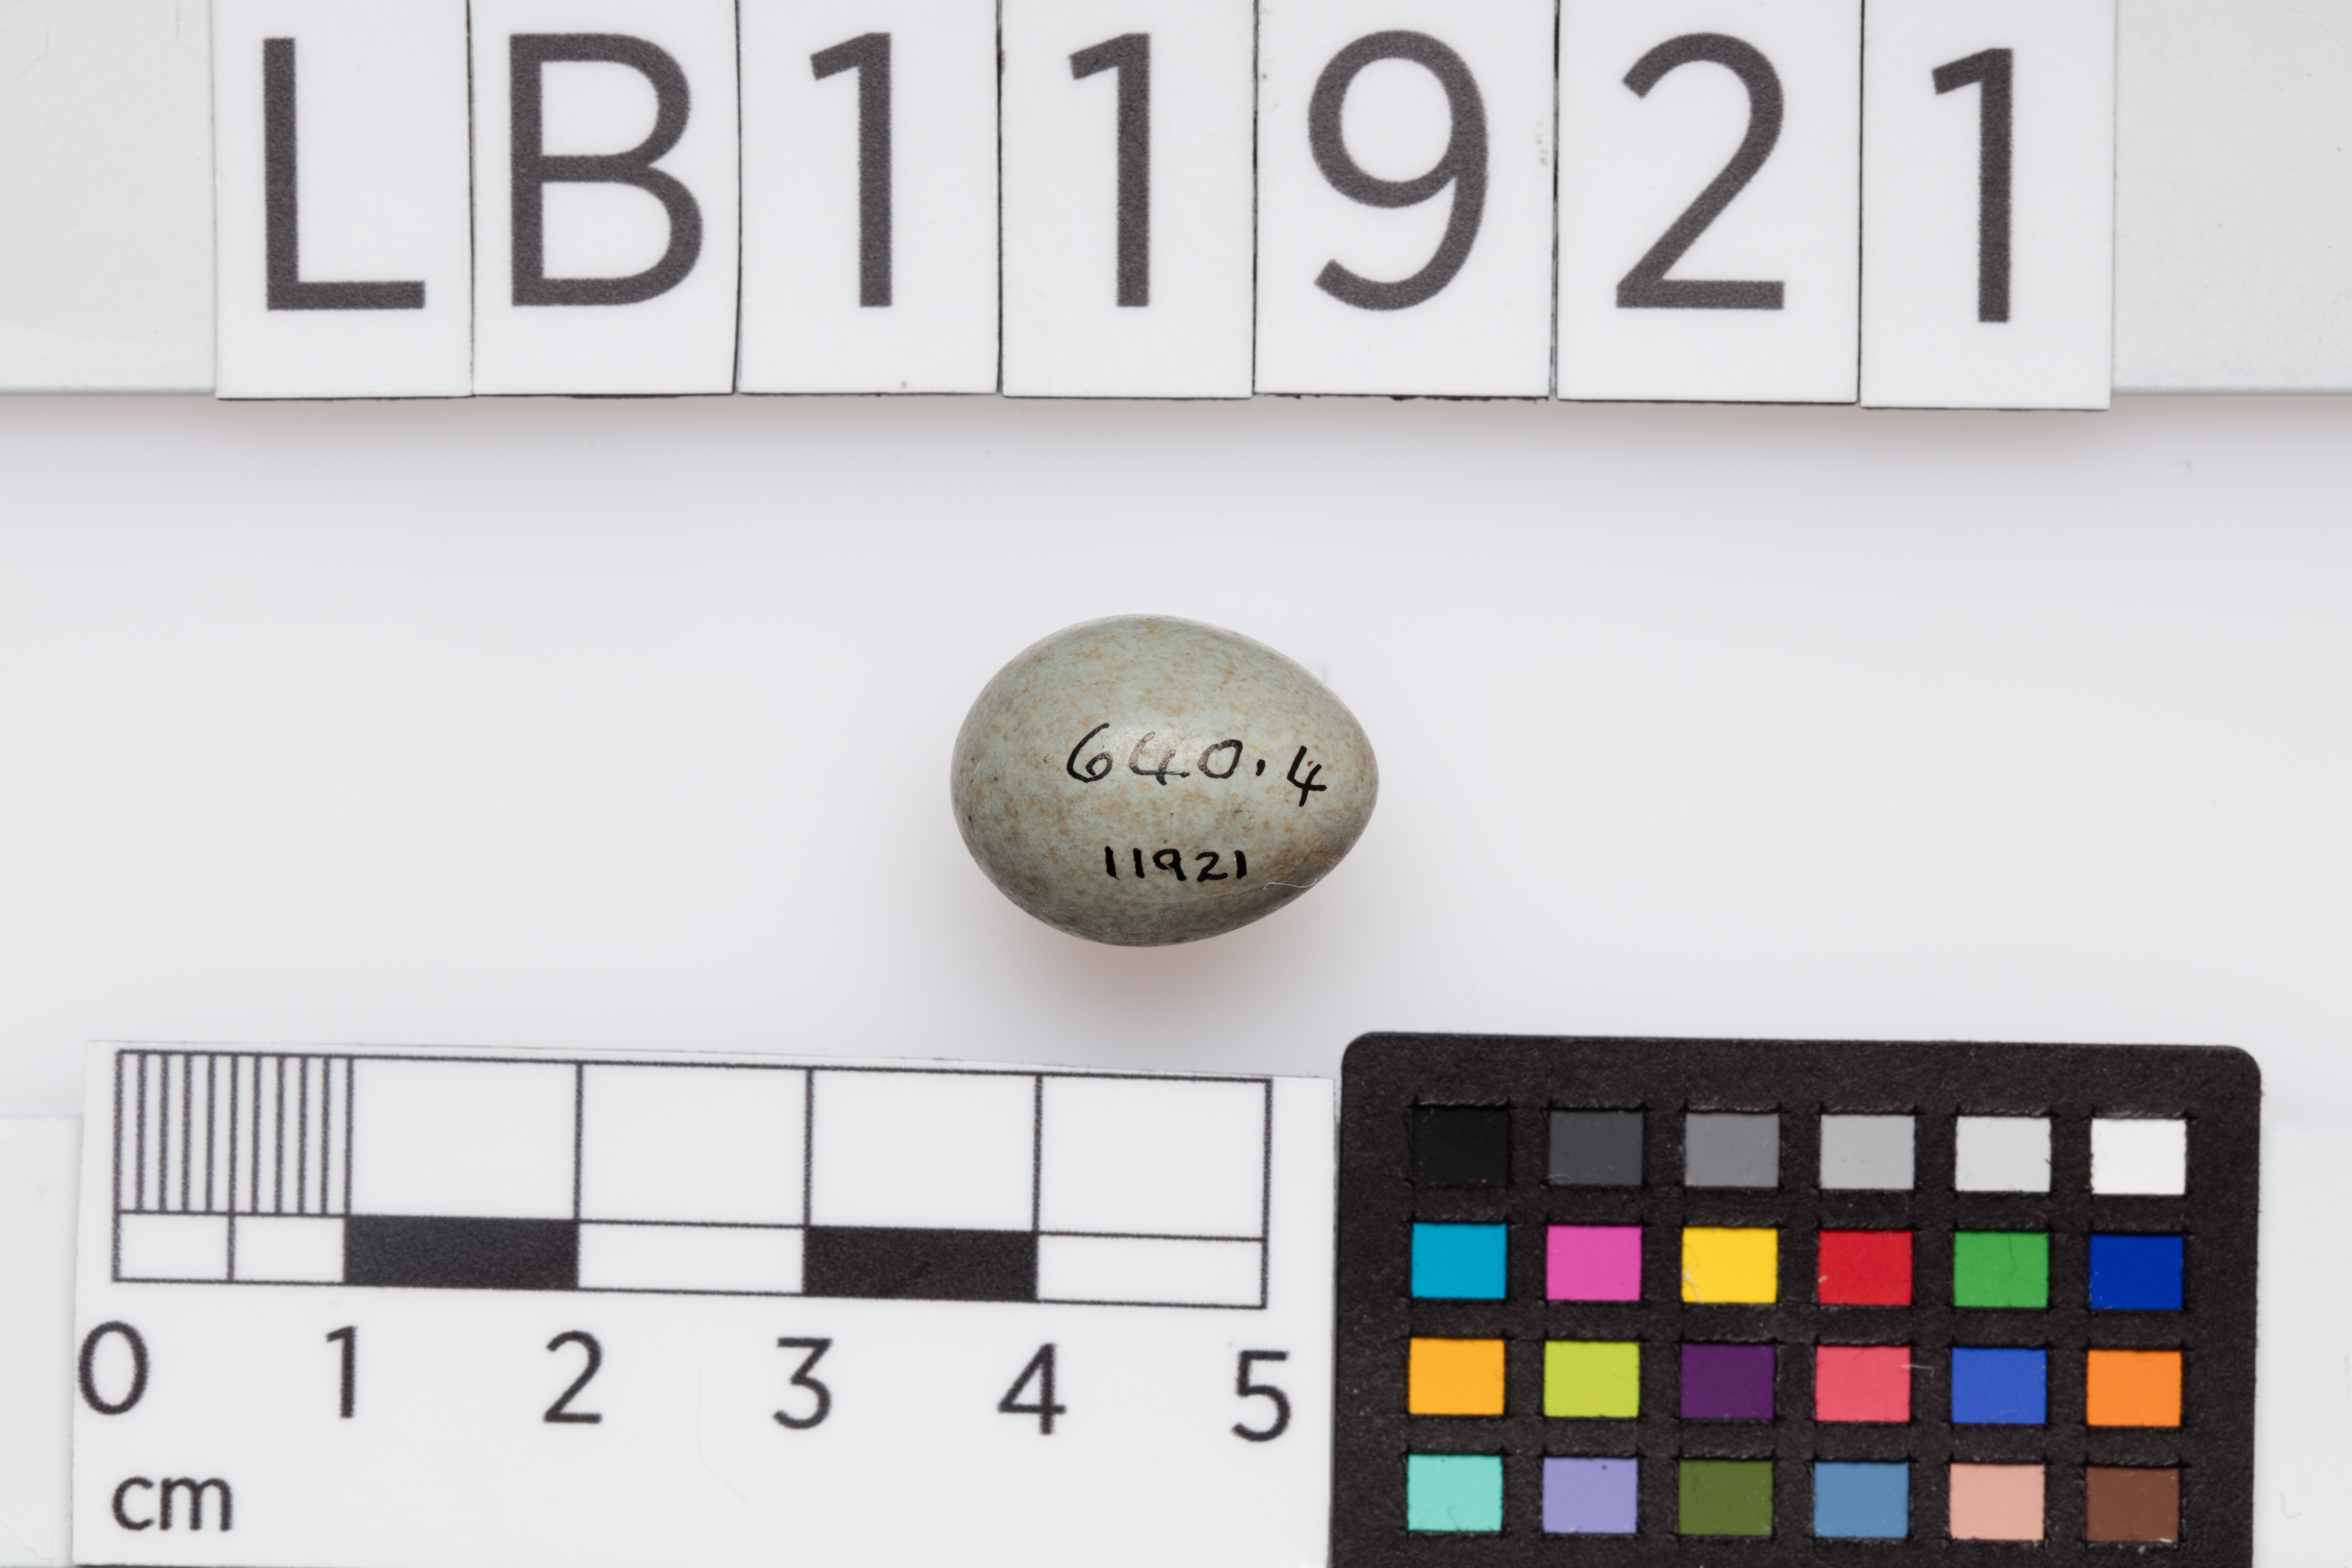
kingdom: Animalia
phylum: Chordata
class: Aves
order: Passeriformes
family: Muscicapidae
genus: Saxicola
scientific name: Saxicola torquatus
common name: African stonechat
